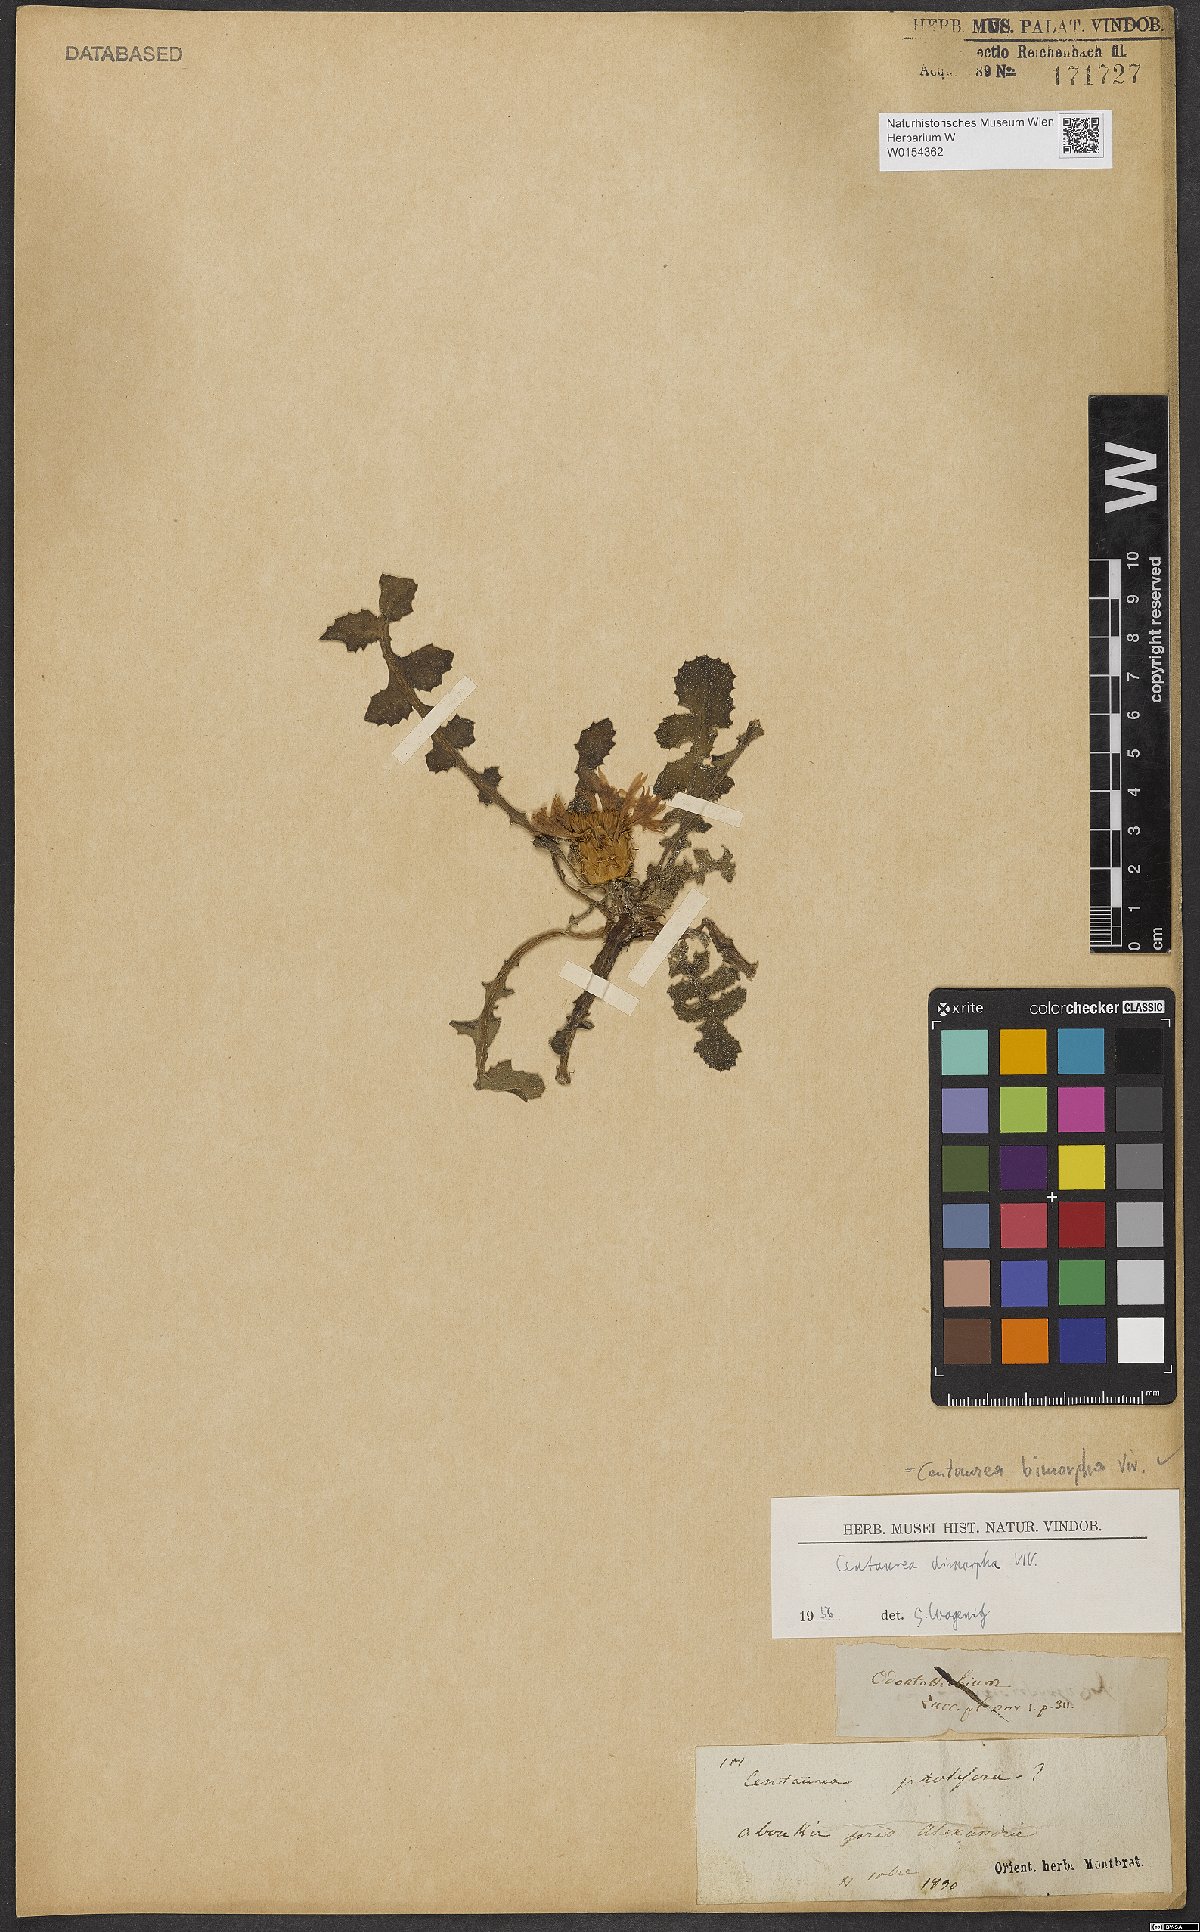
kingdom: Plantae
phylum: Tracheophyta
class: Magnoliopsida
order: Asterales
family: Asteraceae
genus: Centaurea
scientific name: Centaurea bimorpha
